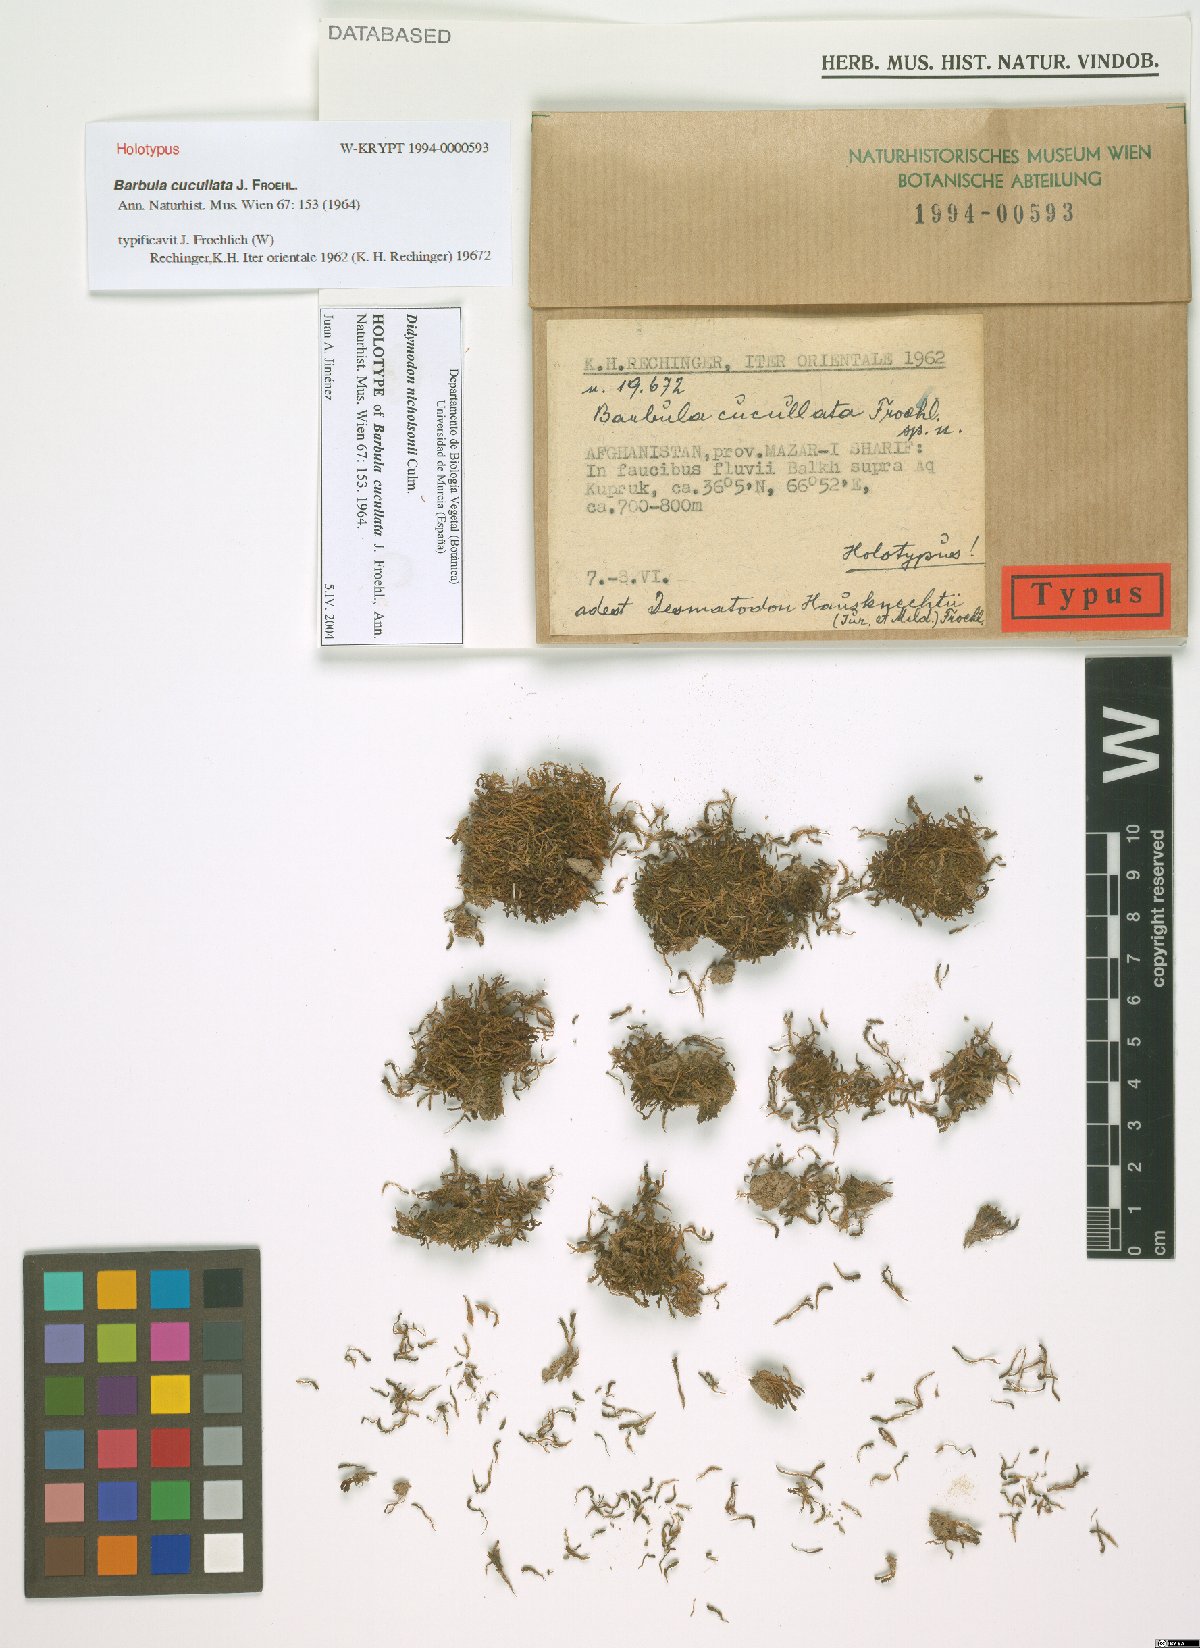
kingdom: Plantae
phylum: Bryophyta
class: Bryopsida
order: Pottiales
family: Pottiaceae
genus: Vinealobryum
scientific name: Vinealobryum nicholsonii
